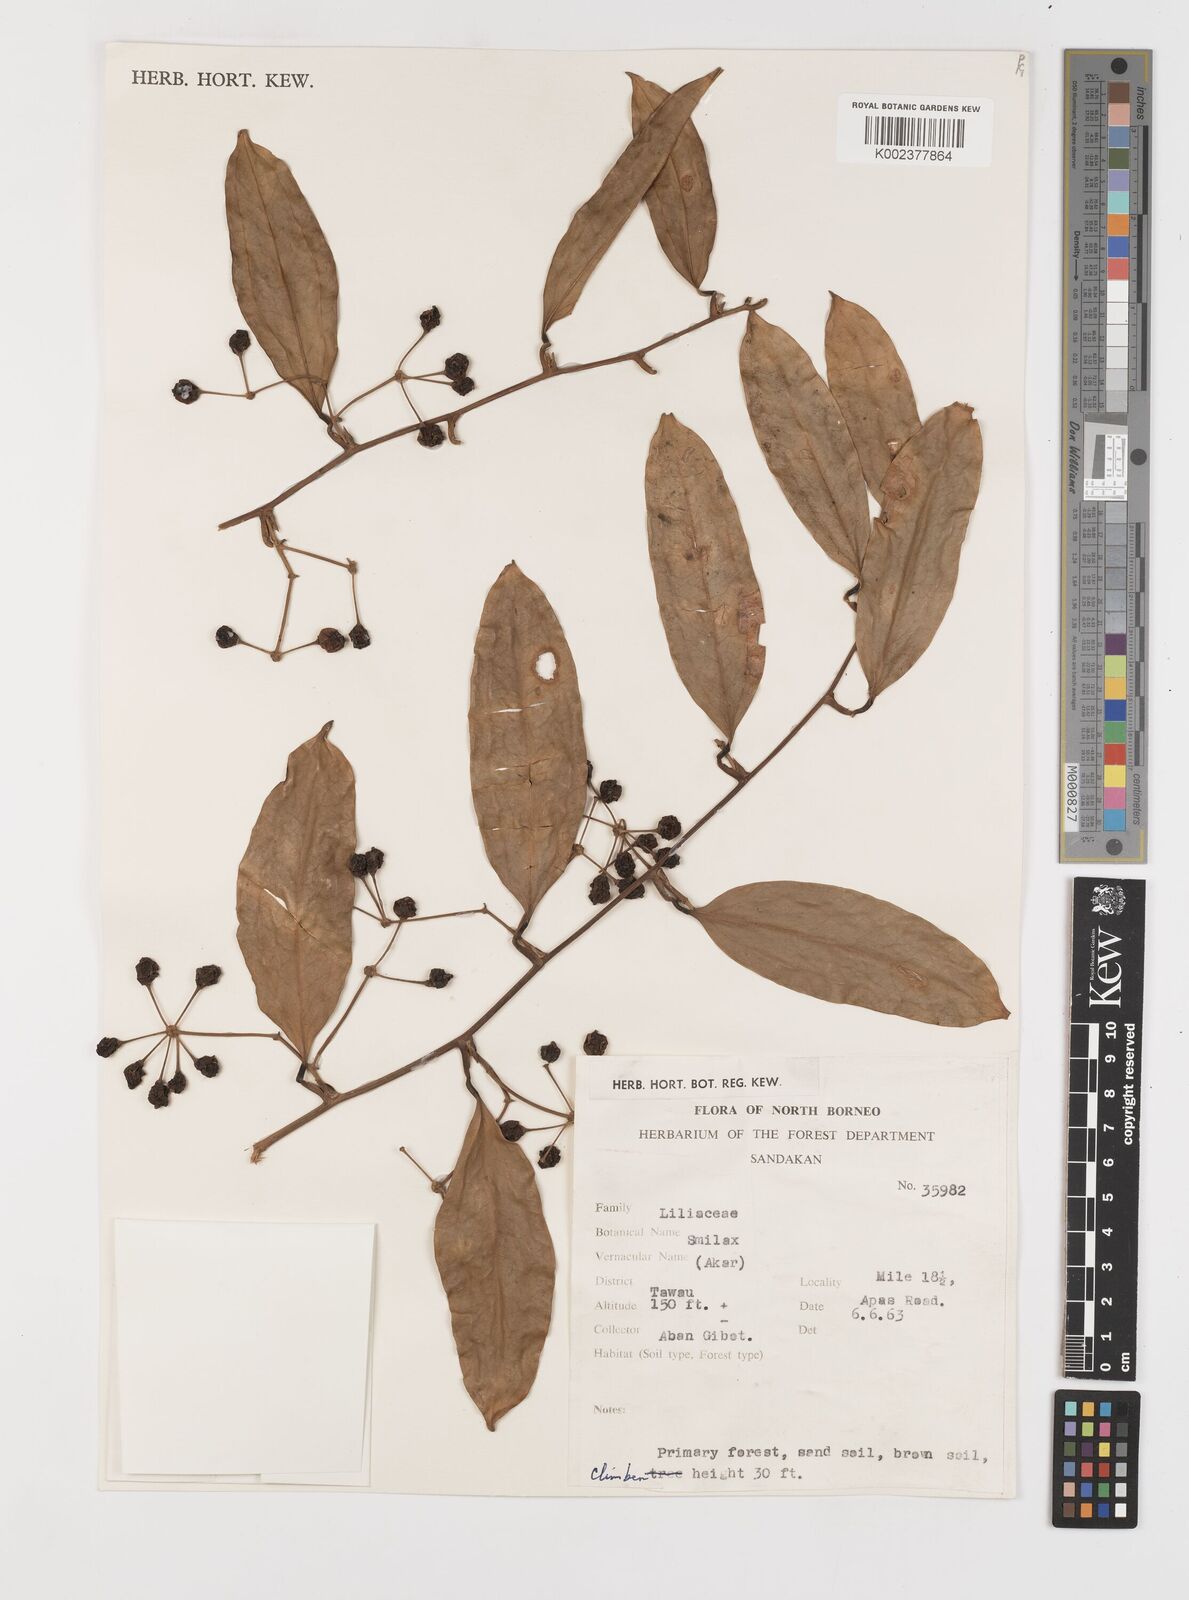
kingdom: Plantae
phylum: Tracheophyta
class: Liliopsida
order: Liliales
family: Smilacaceae
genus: Smilax
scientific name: Smilax
